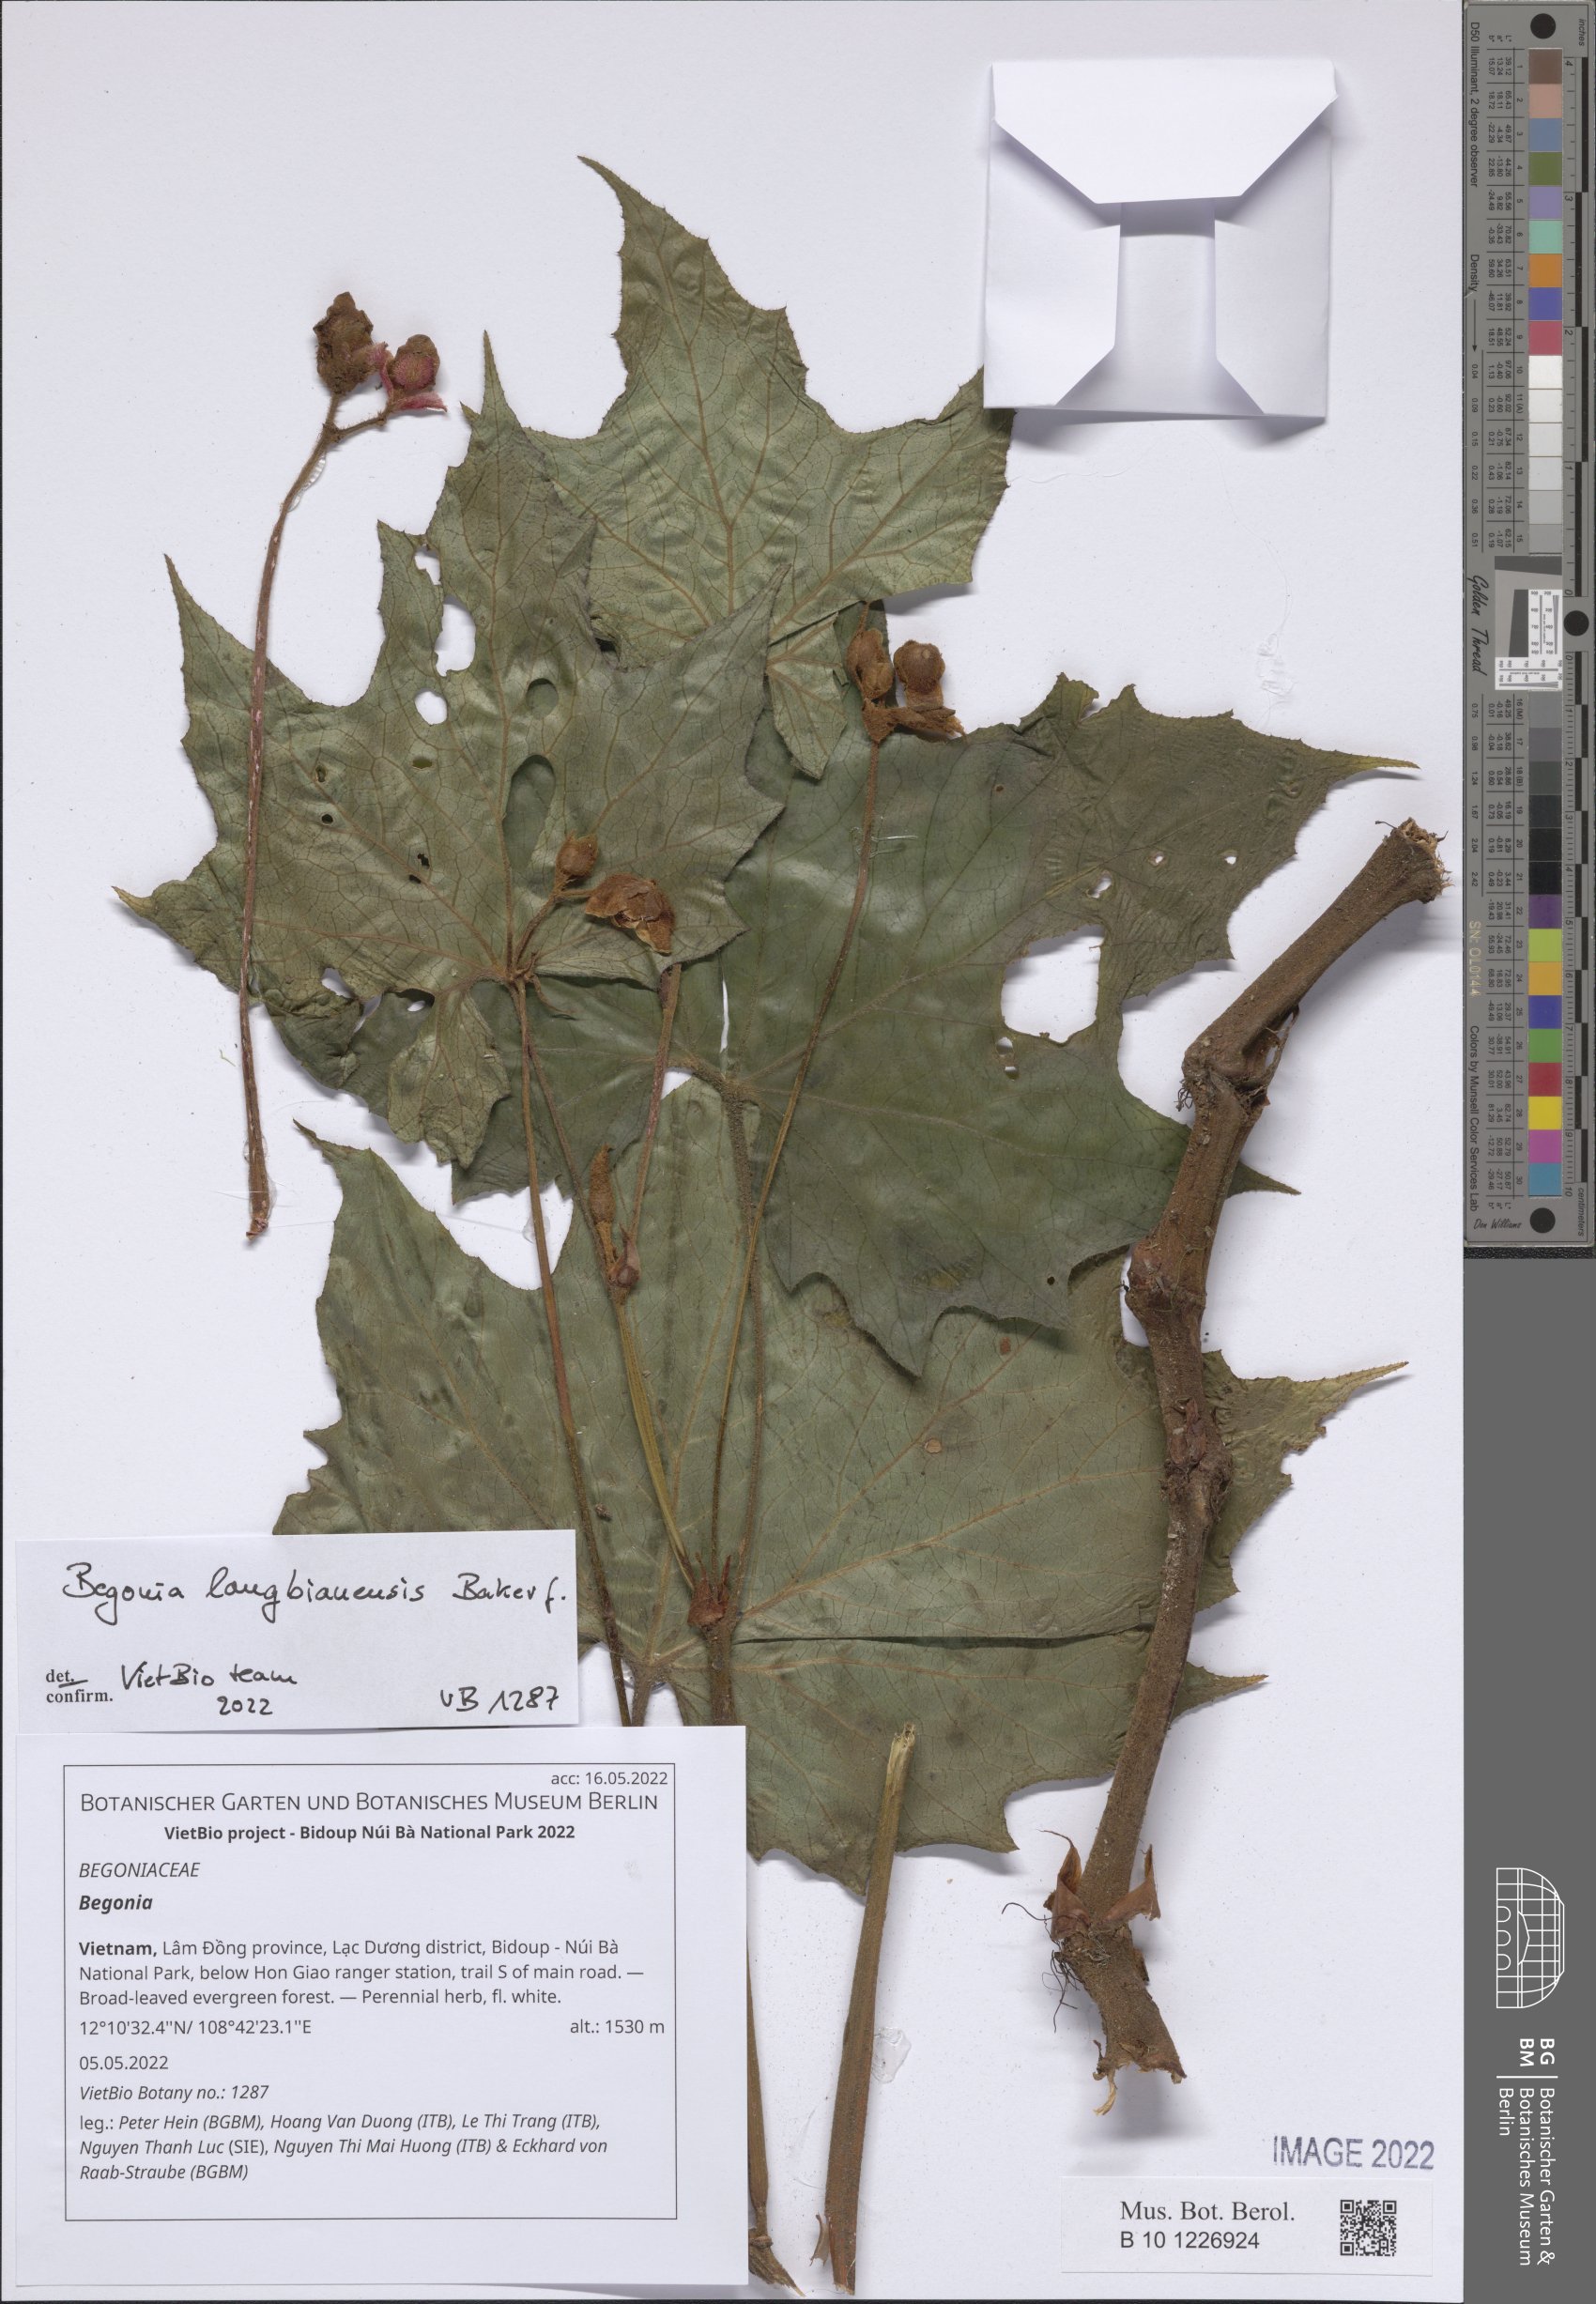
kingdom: Plantae
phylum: Tracheophyta
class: Magnoliopsida
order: Cucurbitales
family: Begoniaceae
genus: Begonia
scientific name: Begonia
